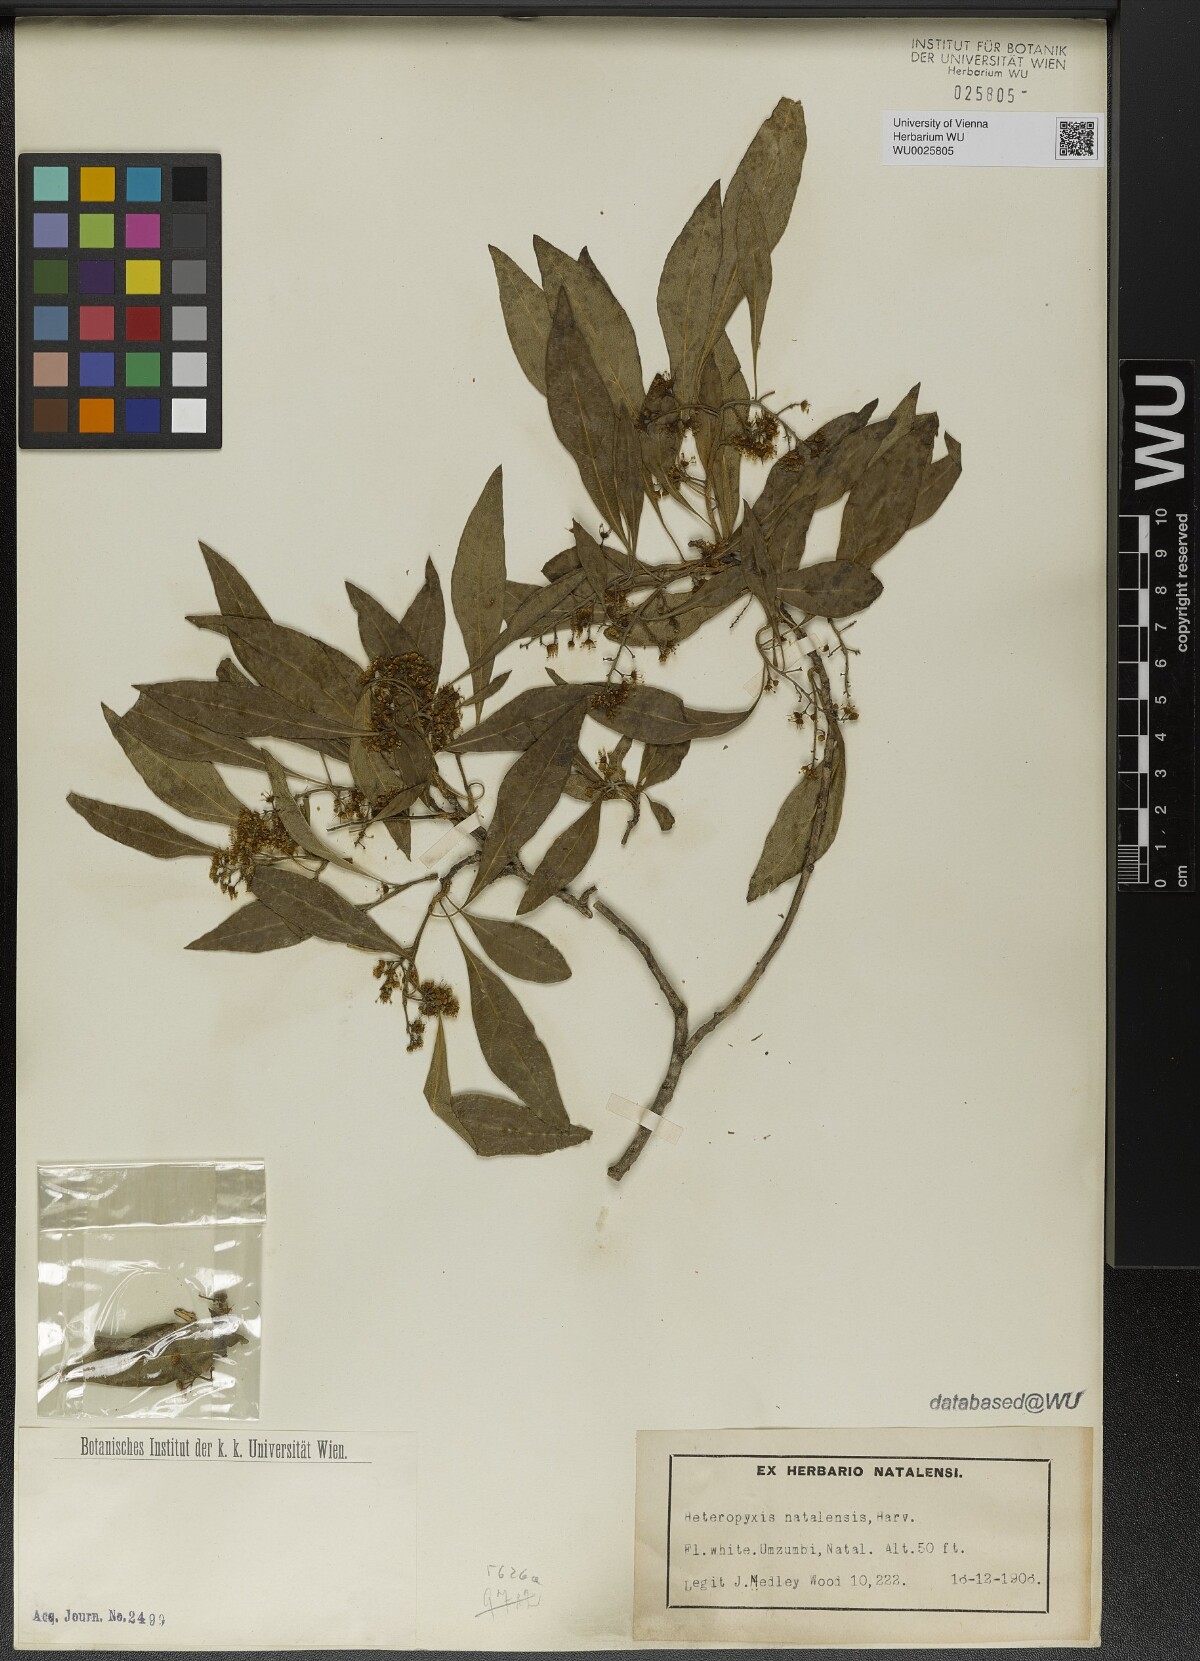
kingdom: Plantae
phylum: Tracheophyta
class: Magnoliopsida
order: Myrtales
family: Myrtaceae
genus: Heteropyxis
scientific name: Heteropyxis natalensis
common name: Lavender tree
